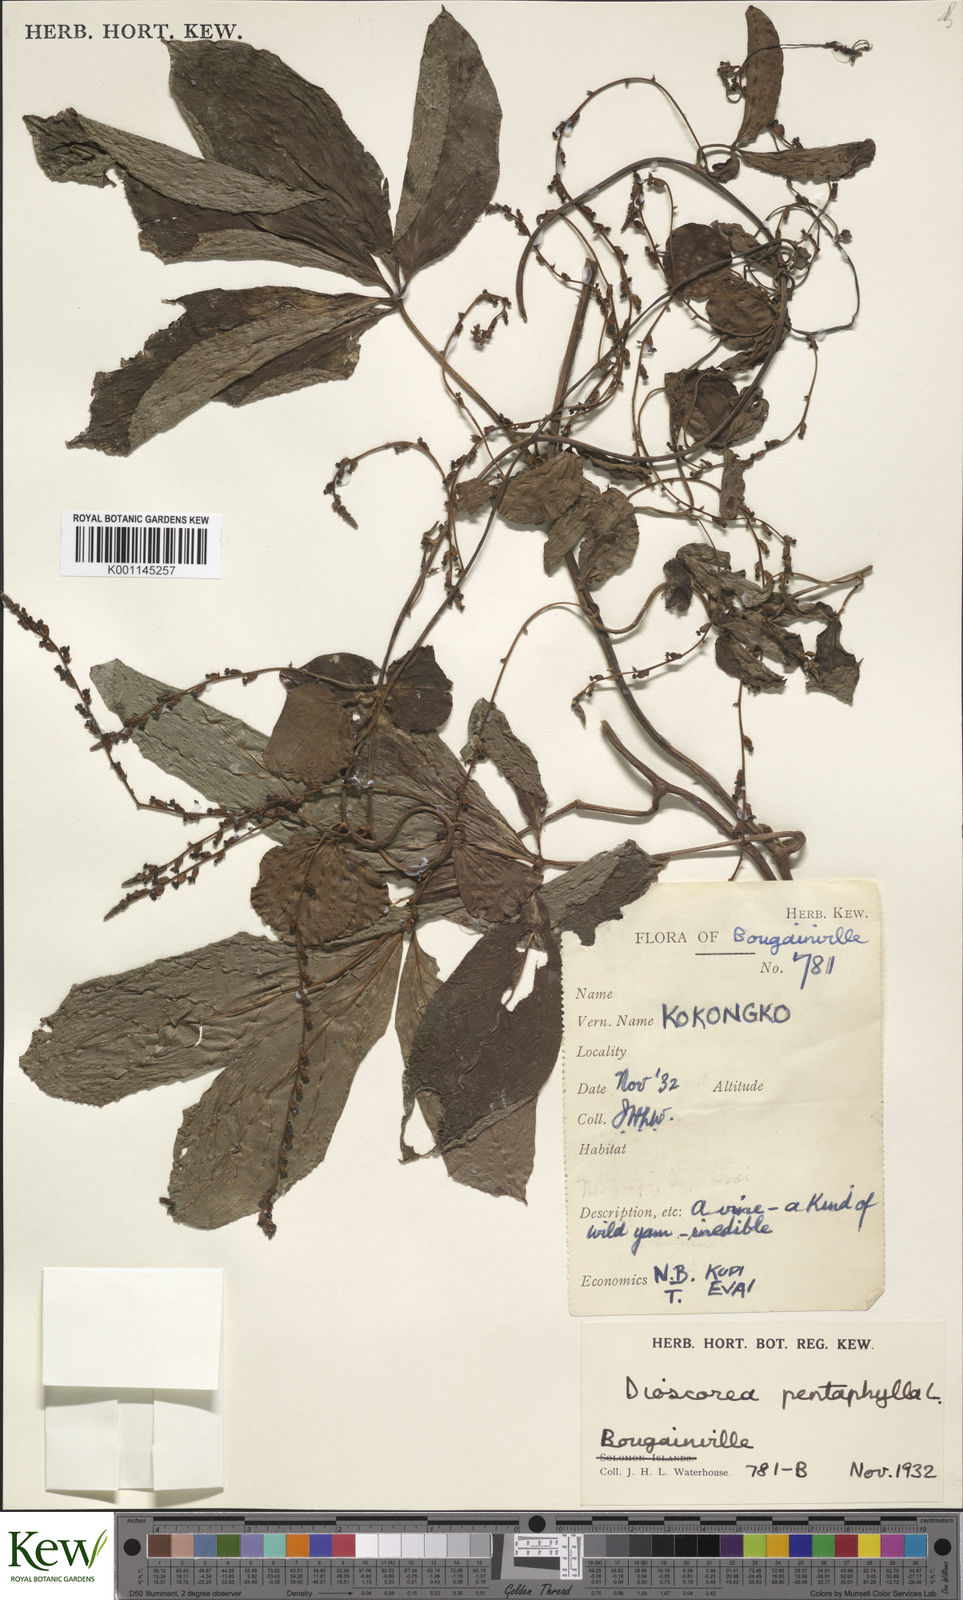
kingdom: Plantae
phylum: Tracheophyta
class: Liliopsida
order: Dioscoreales
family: Dioscoreaceae
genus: Dioscorea
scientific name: Dioscorea pentaphylla
